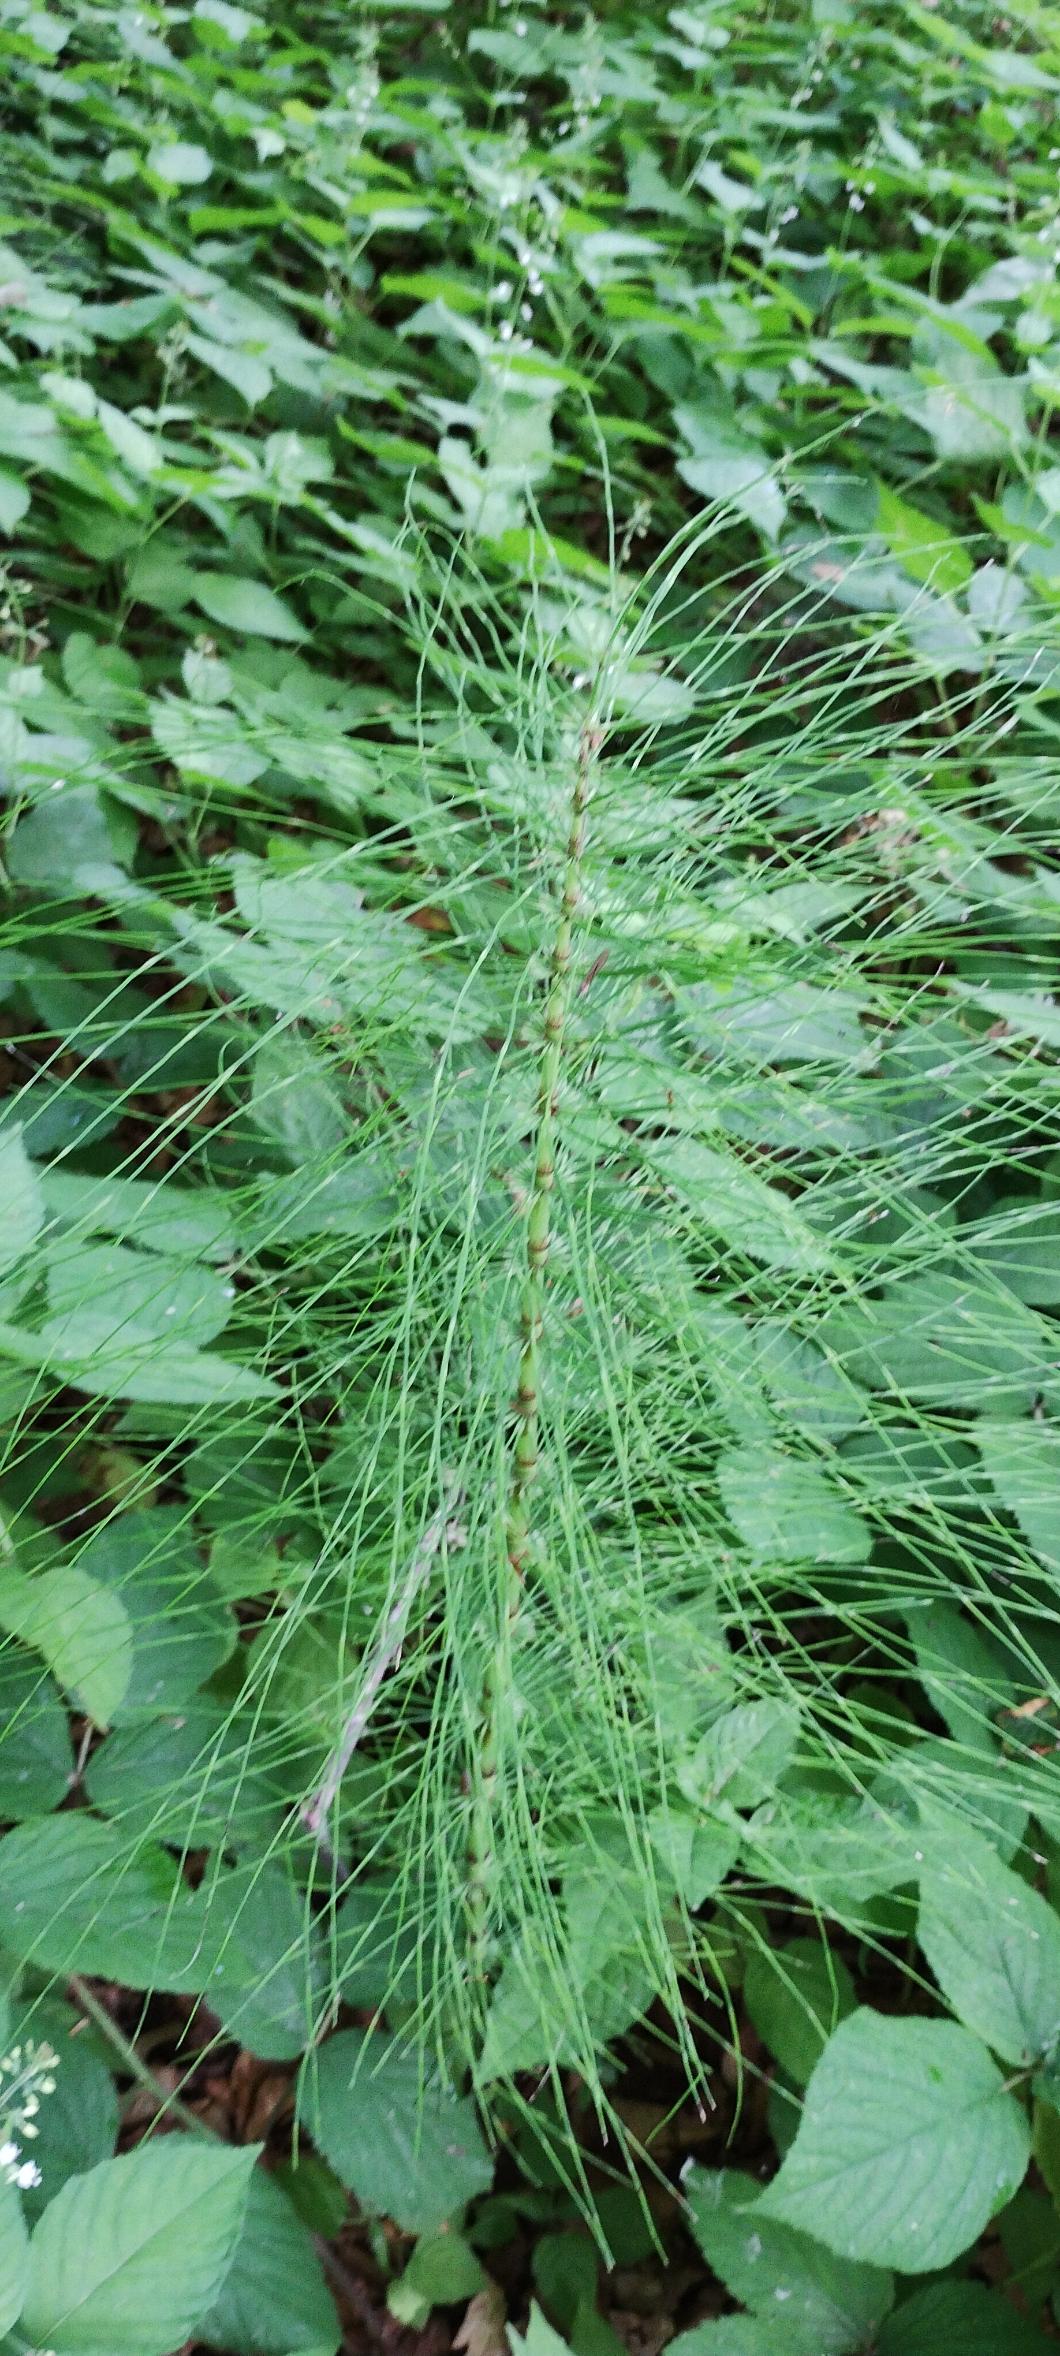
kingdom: Plantae
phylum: Tracheophyta
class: Polypodiopsida
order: Equisetales
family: Equisetaceae
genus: Equisetum
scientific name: Equisetum telmateia
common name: Elfenbens-padderok
